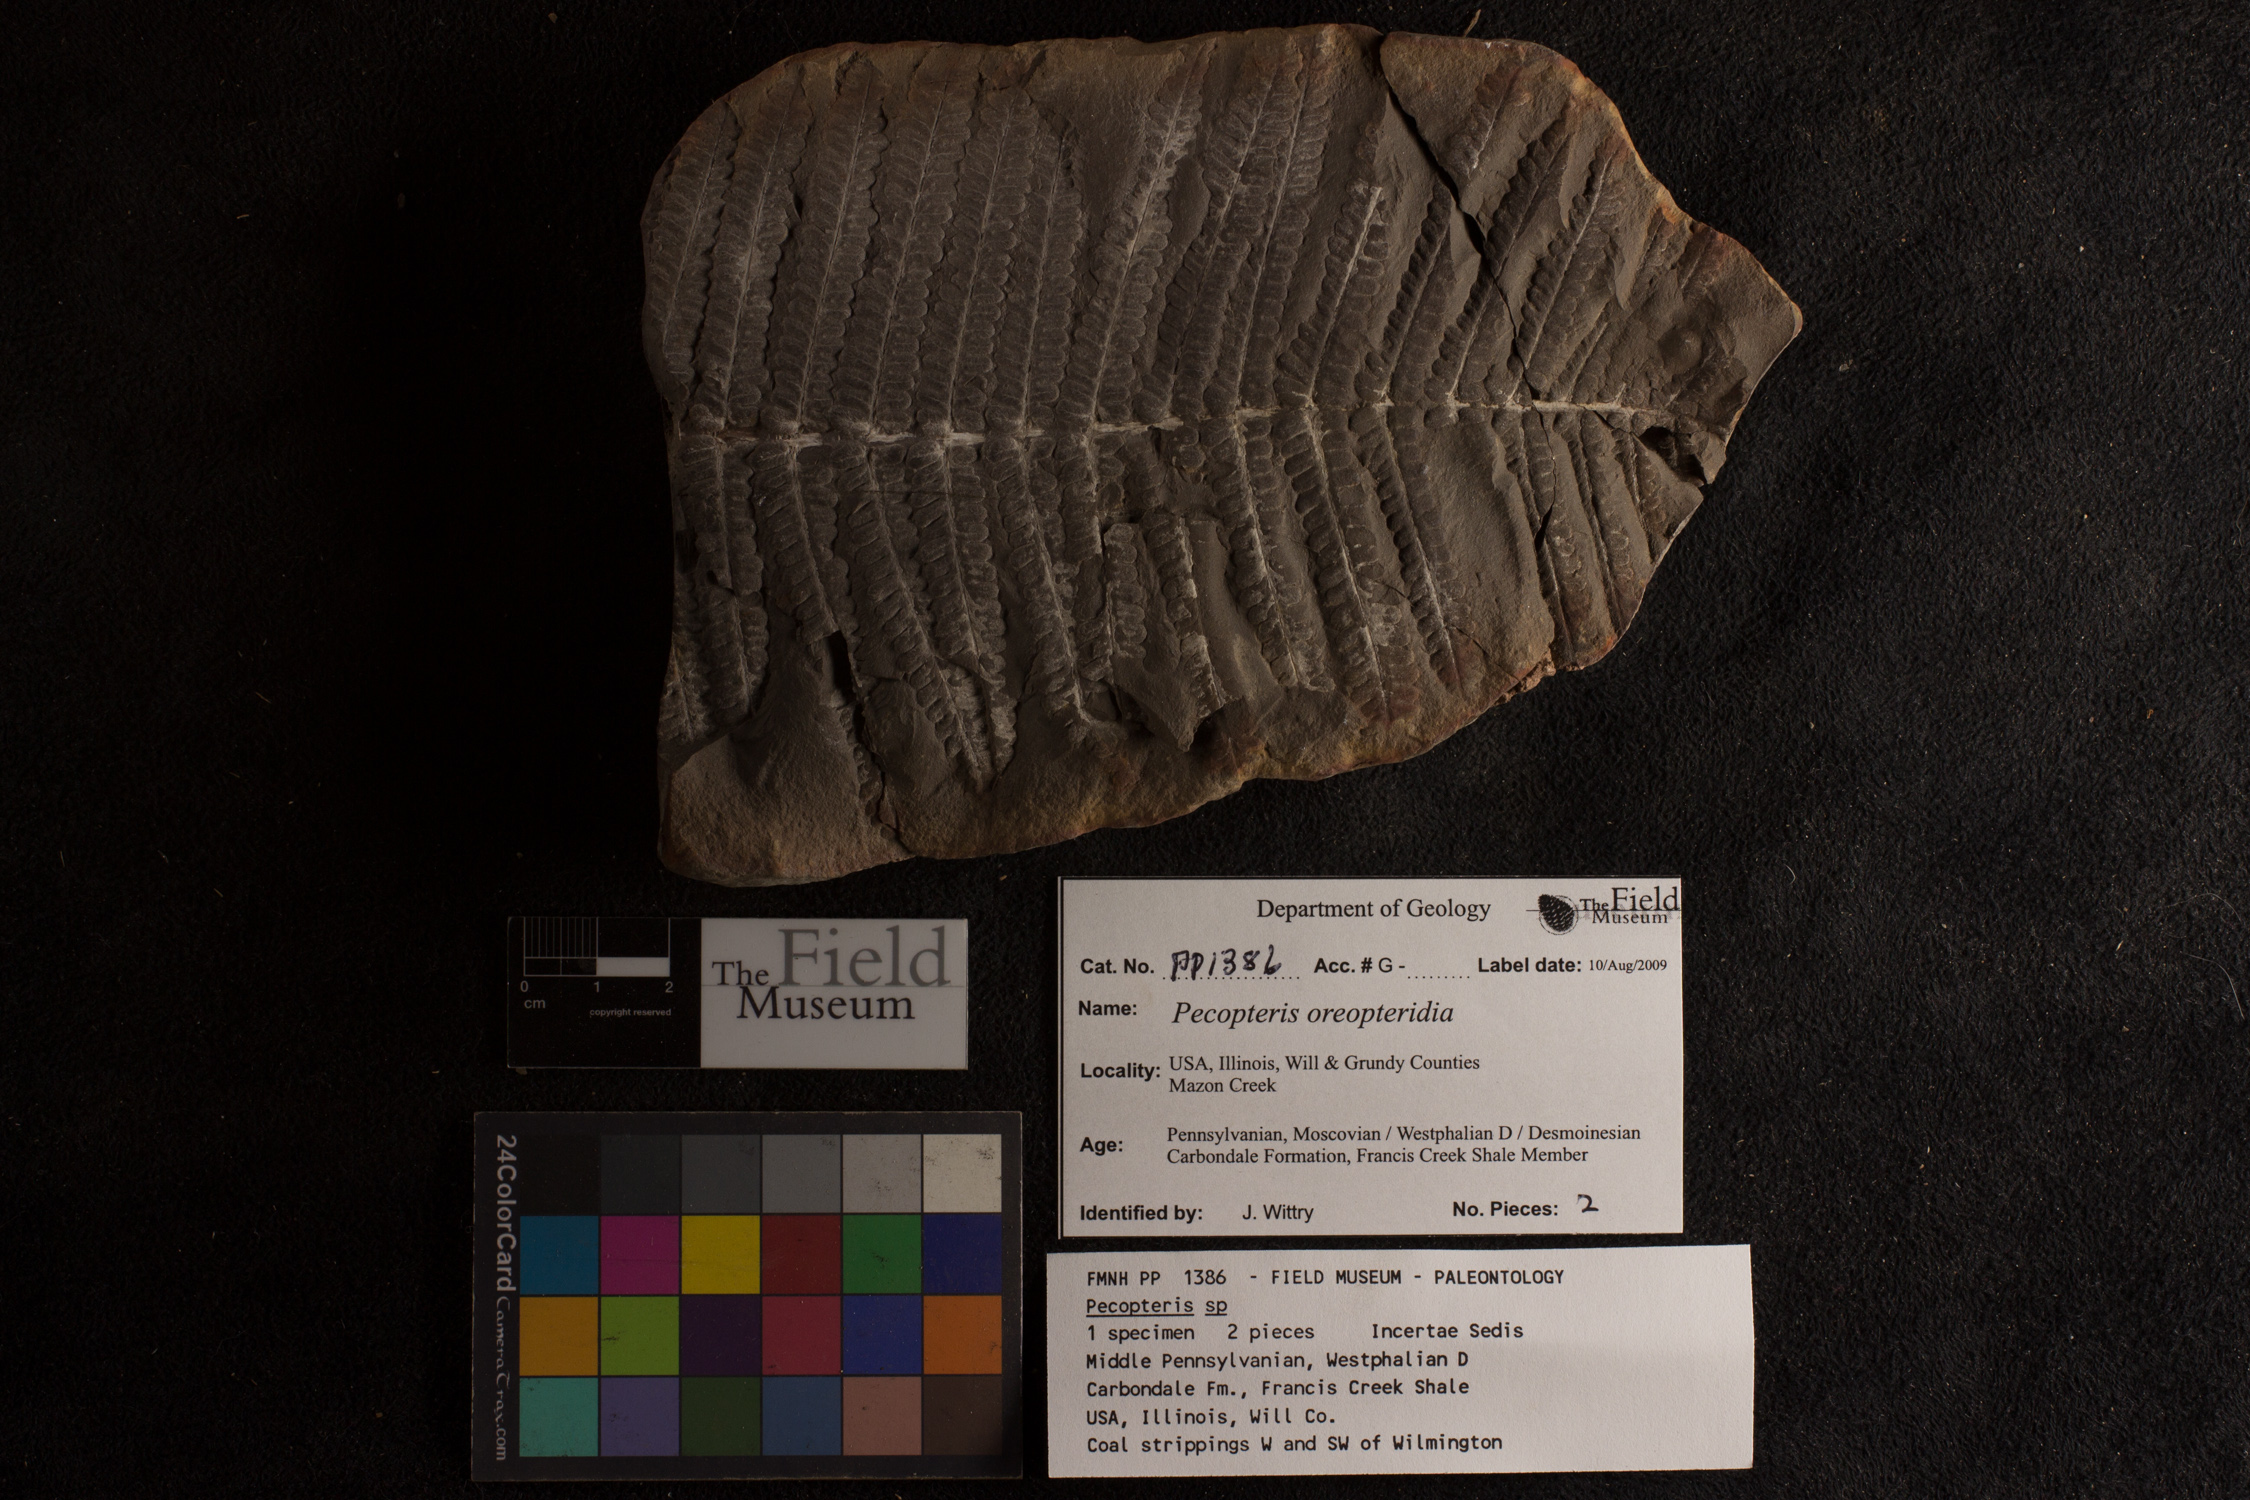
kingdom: Plantae
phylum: Tracheophyta
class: Polypodiopsida
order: Marattiales
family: Asterothecaceae
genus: Pecopteris
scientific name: Pecopteris
